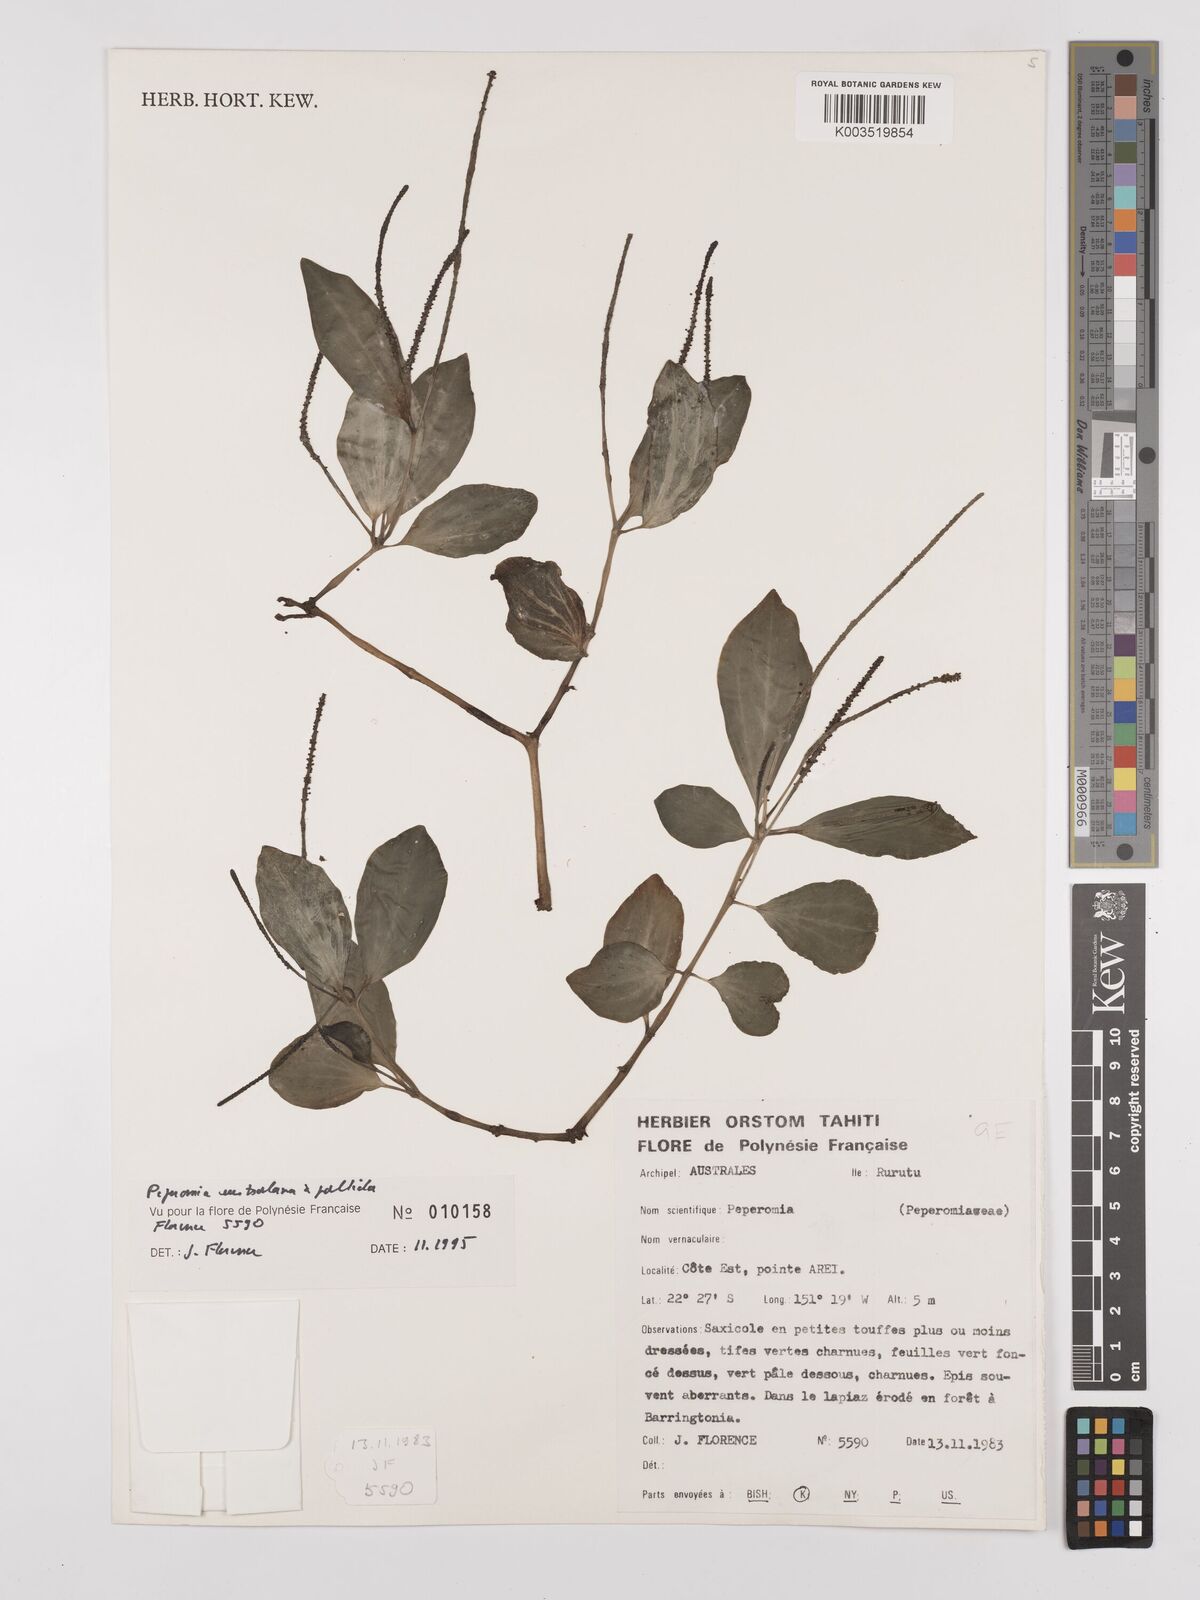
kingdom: Plantae
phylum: Tracheophyta
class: Magnoliopsida
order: Piperales
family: Piperaceae
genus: Peperomia
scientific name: Peperomia australana
